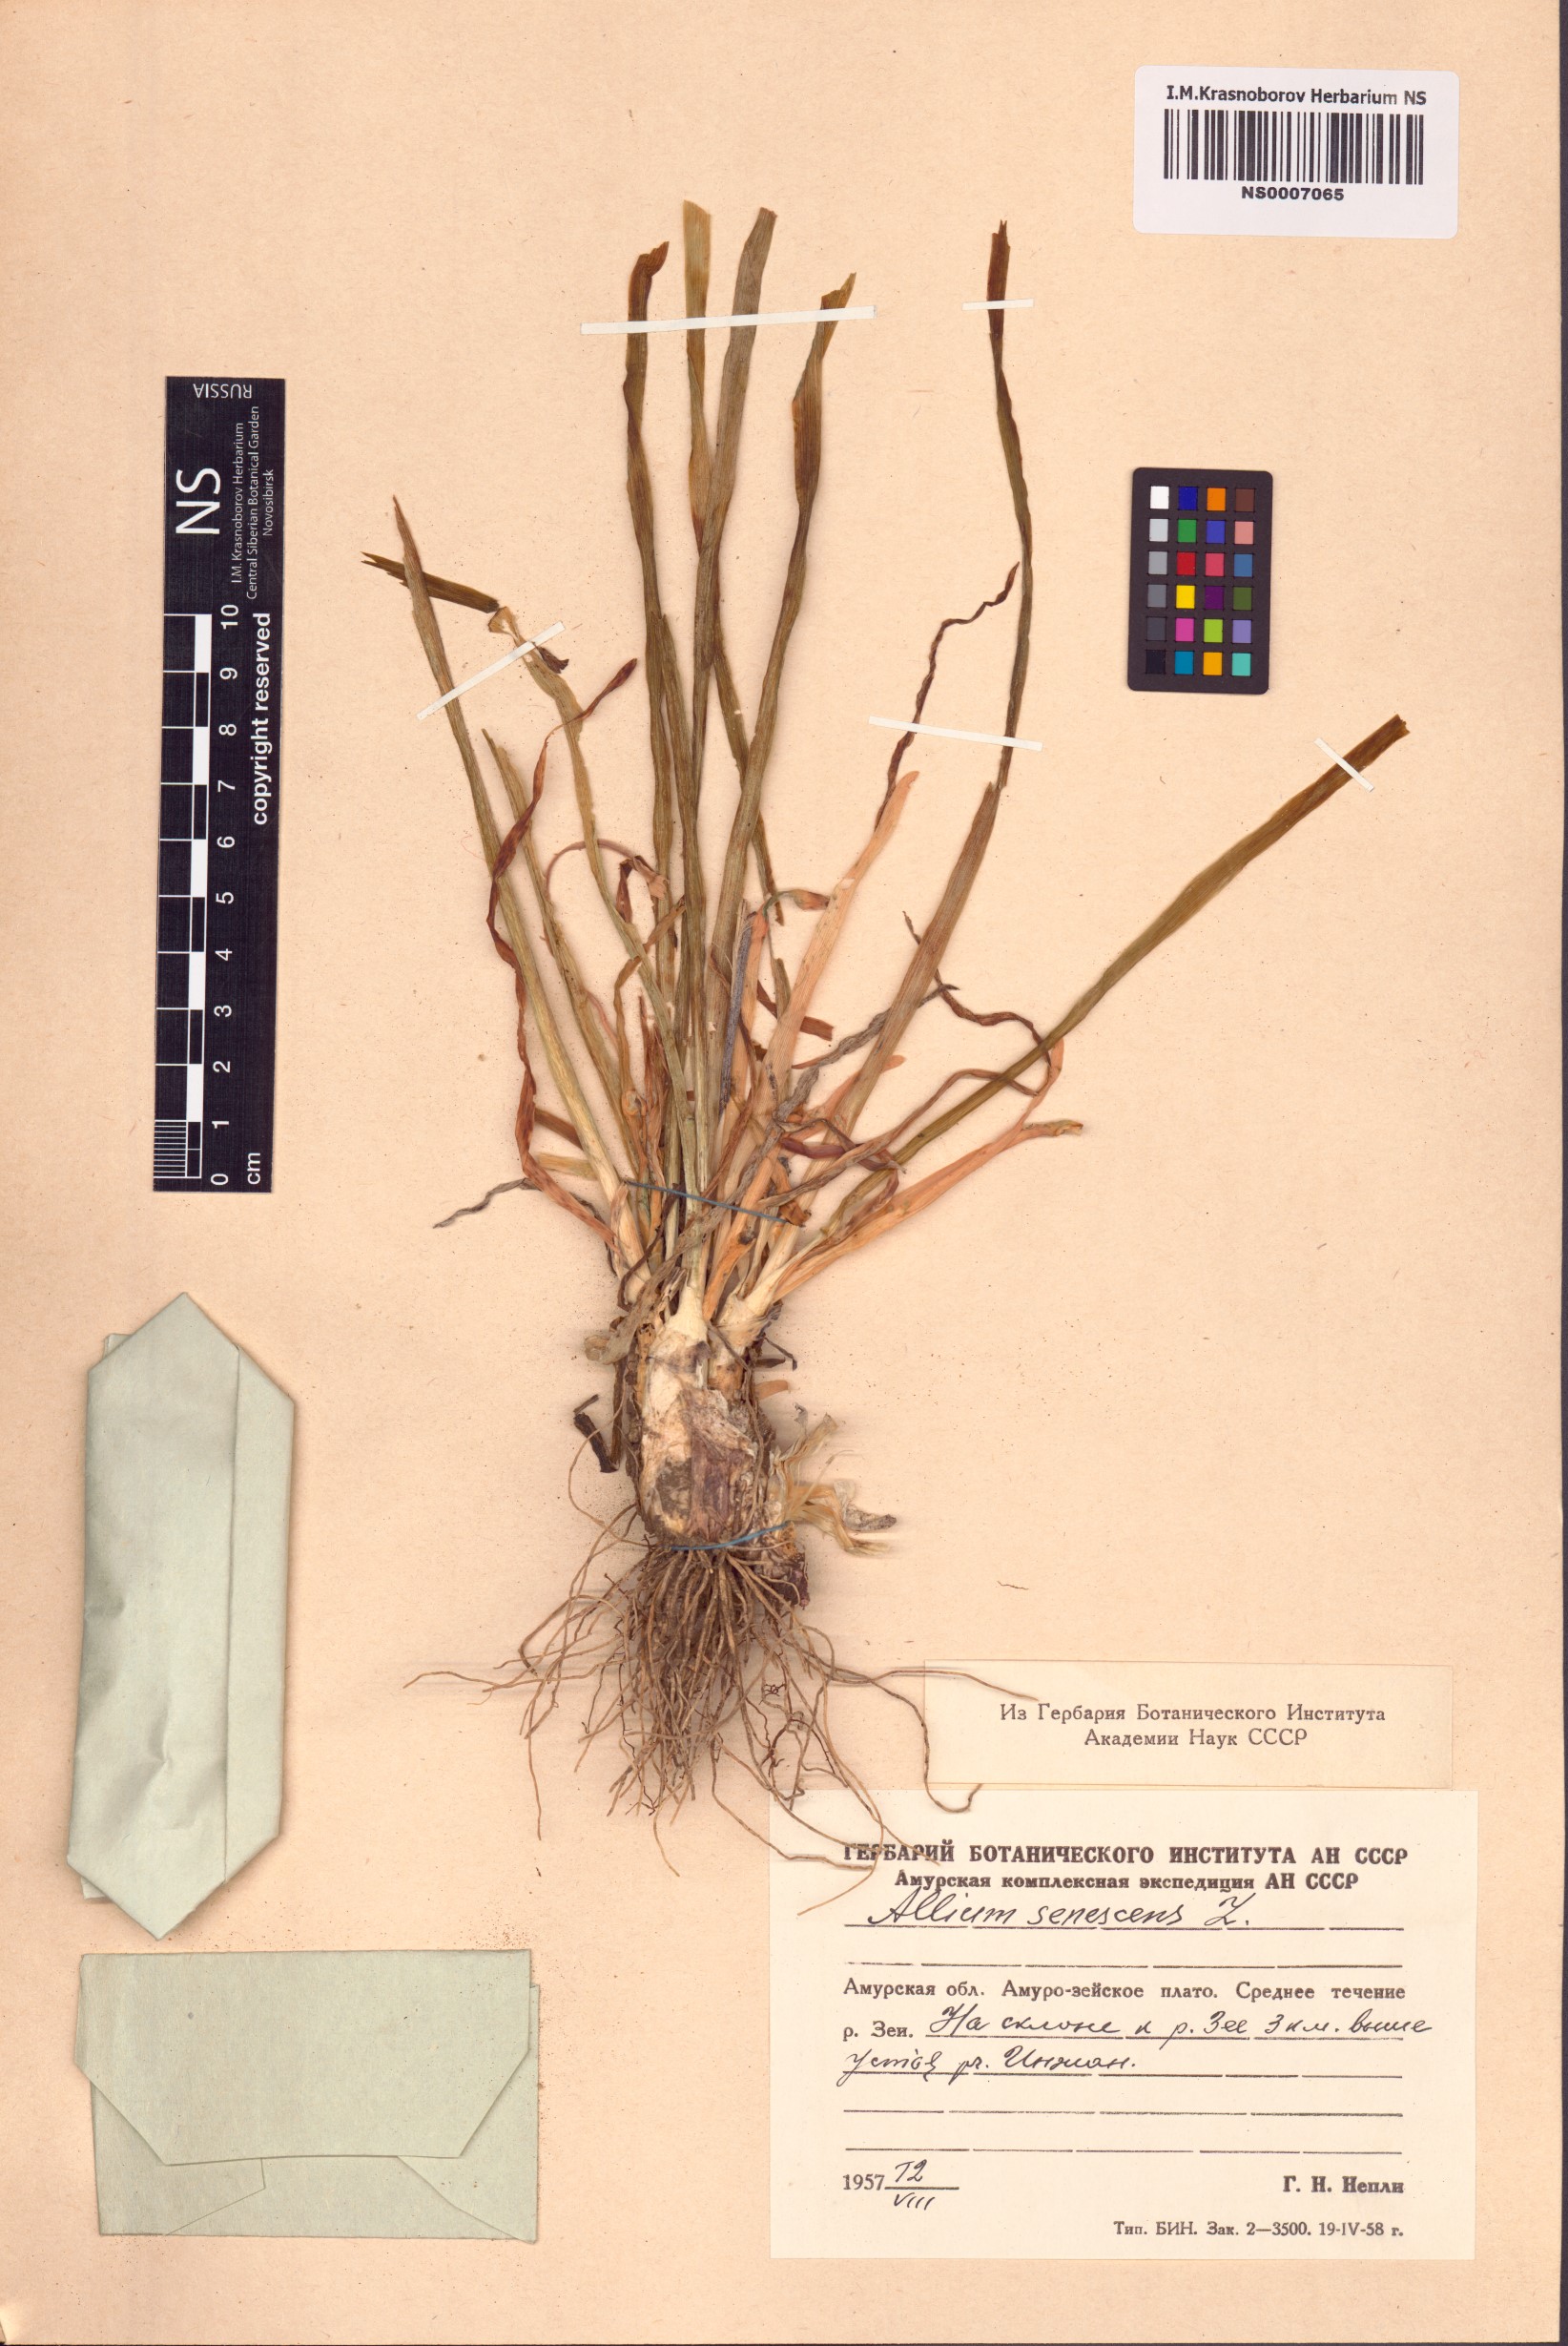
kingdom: Plantae
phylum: Tracheophyta
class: Liliopsida
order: Asparagales
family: Amaryllidaceae
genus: Allium
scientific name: Allium senescens
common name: German garlic
